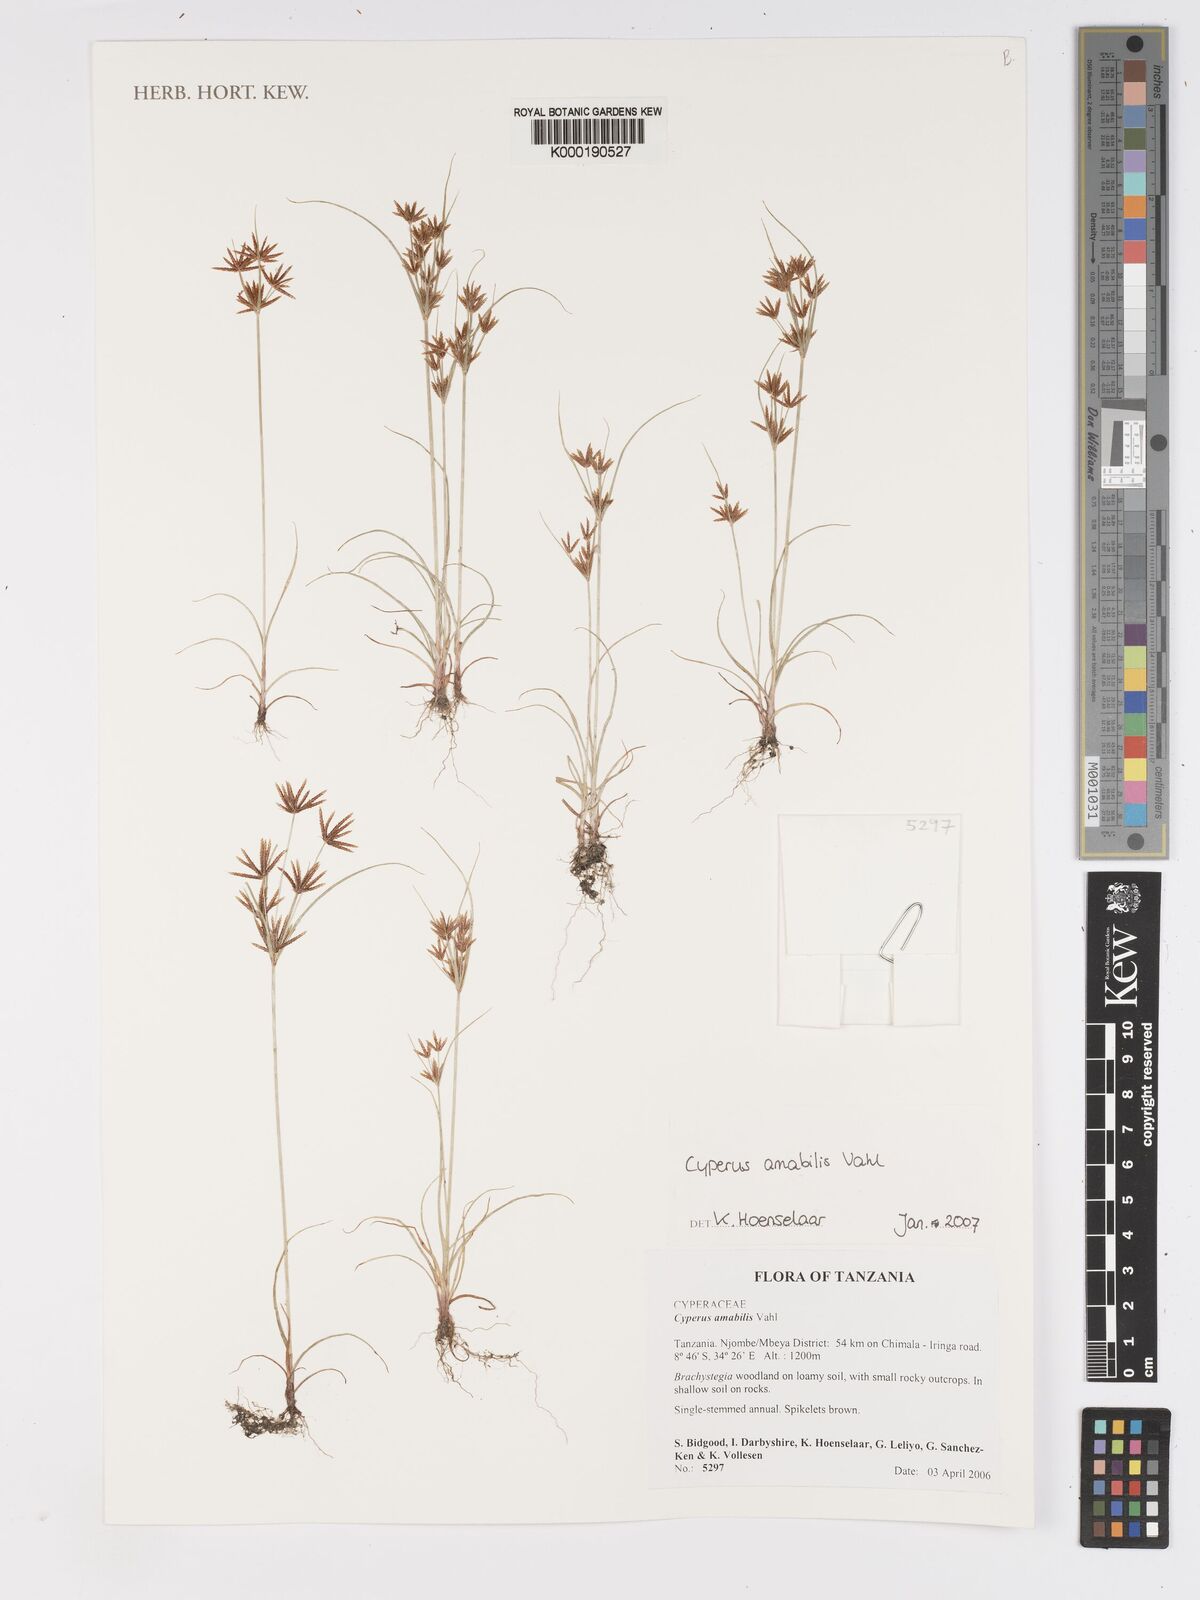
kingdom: Plantae
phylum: Tracheophyta
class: Liliopsida
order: Poales
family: Cyperaceae
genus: Cyperus
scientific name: Cyperus amabilis
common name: Foothill flat sedge
